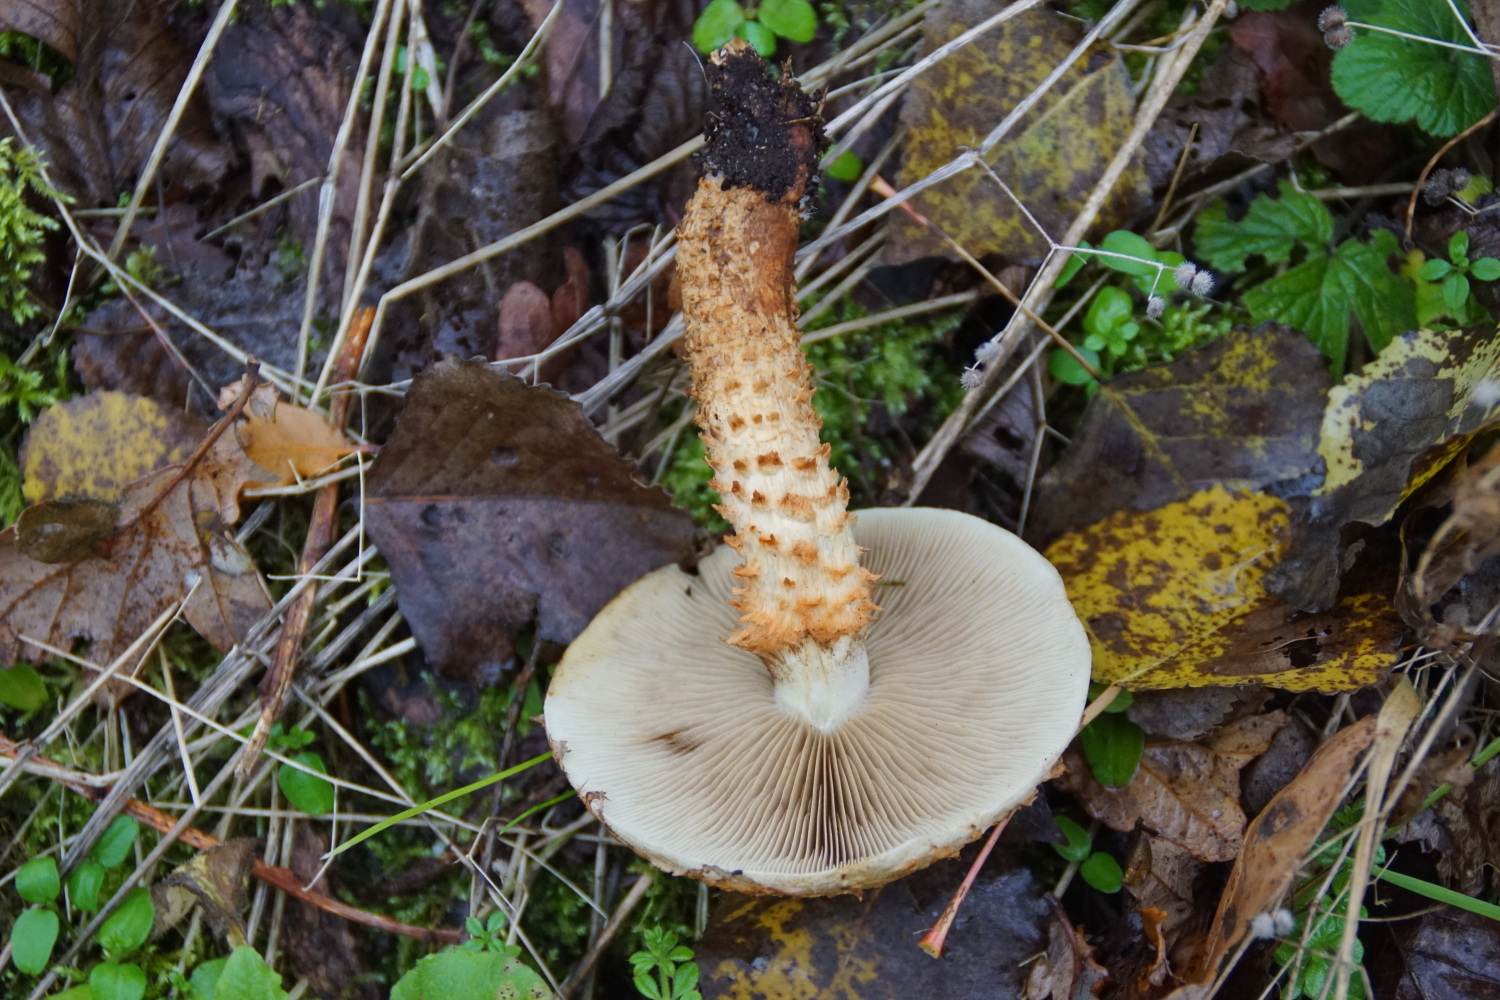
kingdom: Fungi
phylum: Basidiomycota
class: Agaricomycetes
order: Agaricales
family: Strophariaceae
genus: Pholiota
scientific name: Pholiota squarrosa
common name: krumskællet skælhat
